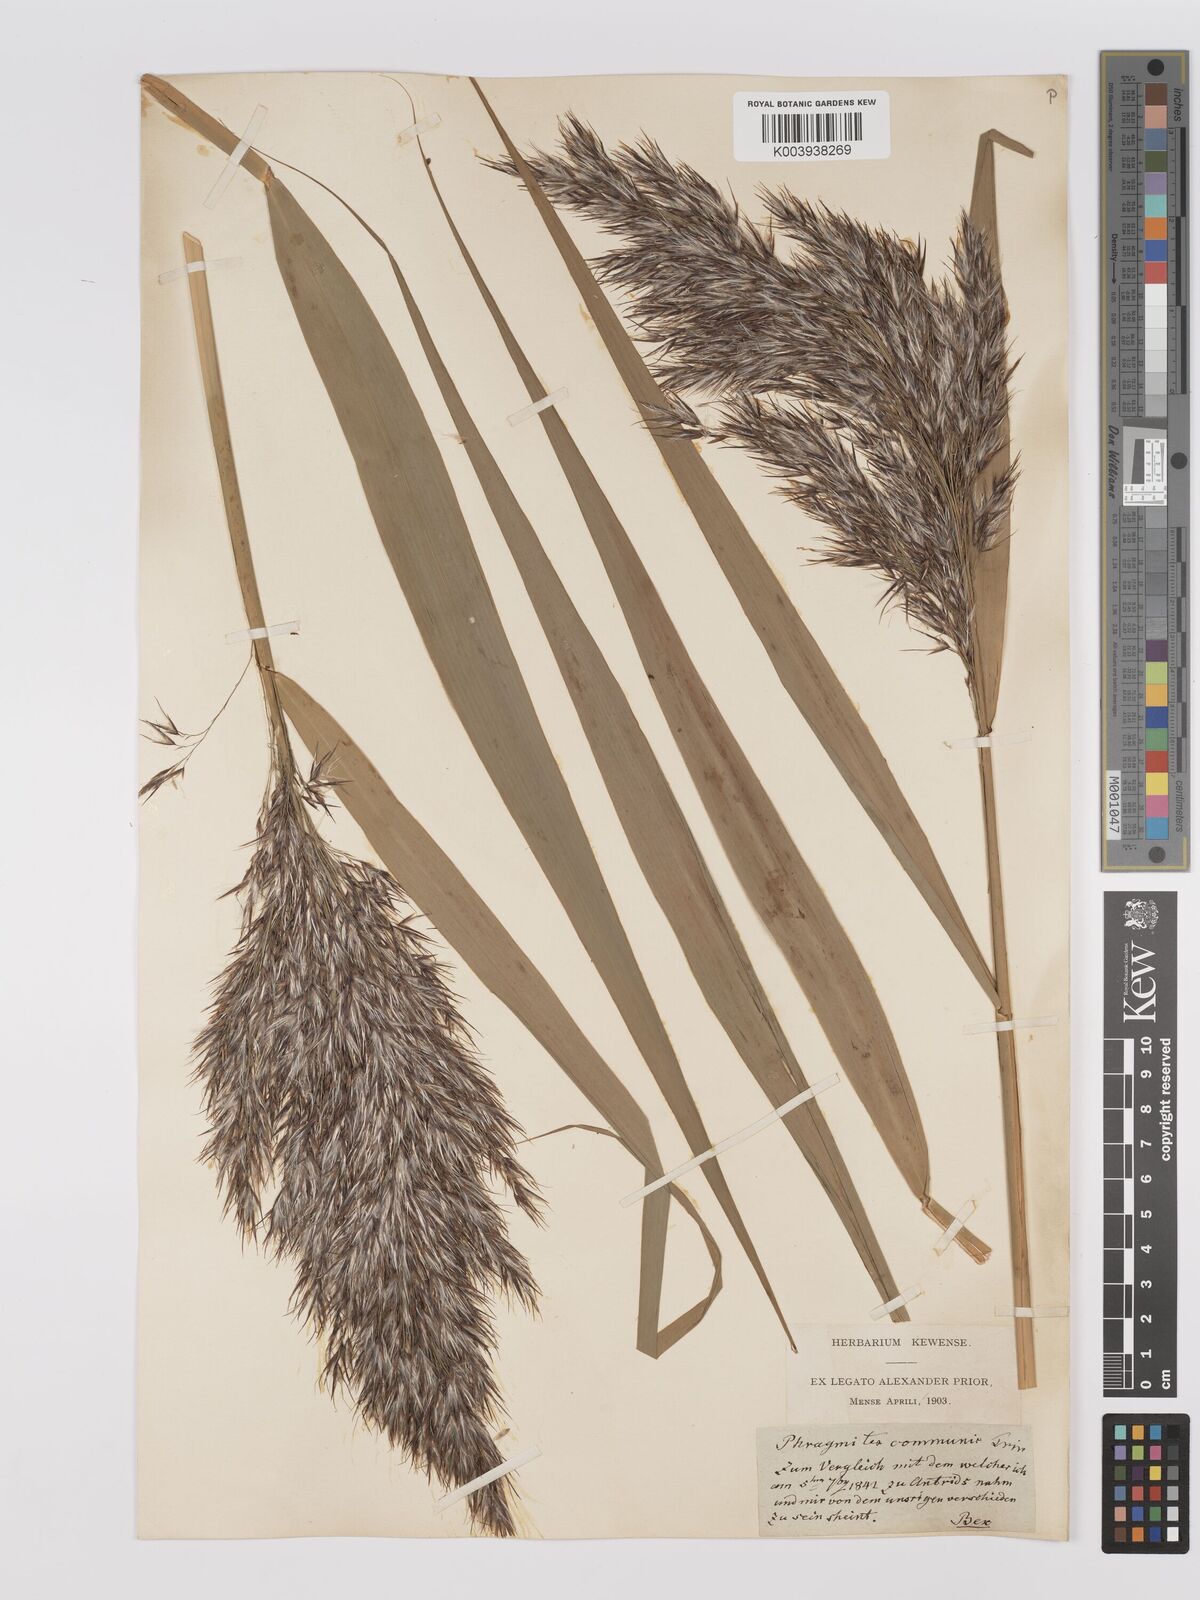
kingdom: Plantae
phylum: Tracheophyta
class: Liliopsida
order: Poales
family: Poaceae
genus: Phragmites
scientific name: Phragmites australis
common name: Common reed
